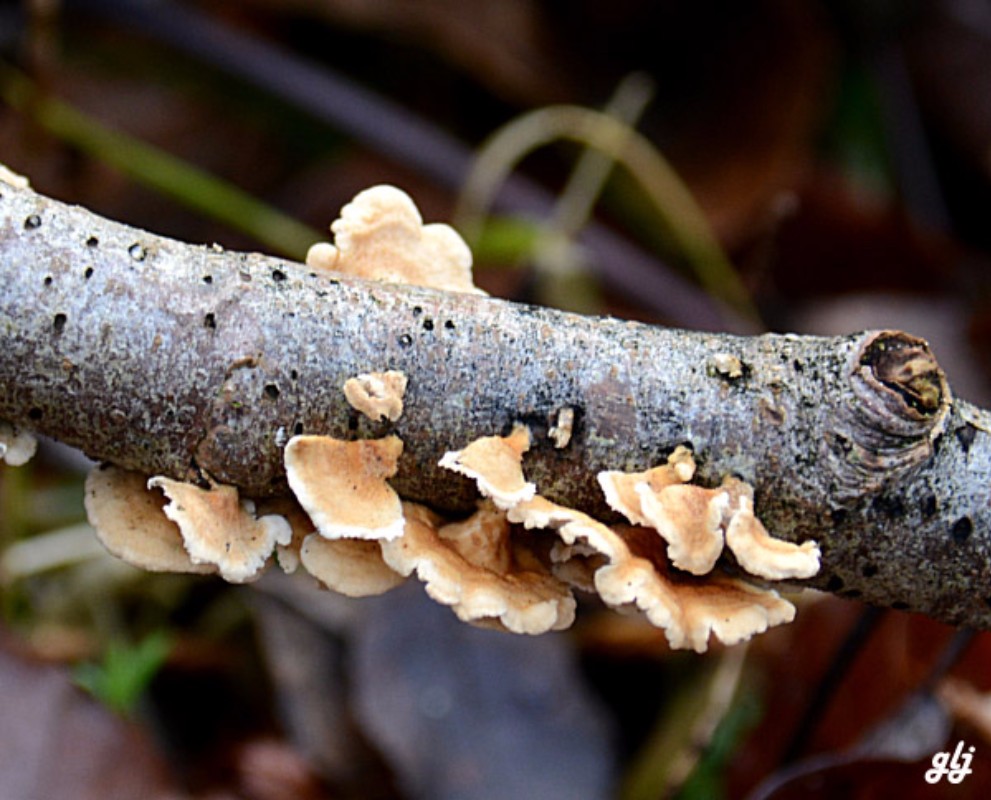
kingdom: Fungi
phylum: Basidiomycota
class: Agaricomycetes
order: Amylocorticiales
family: Amylocorticiaceae
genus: Plicaturopsis
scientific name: Plicaturopsis crispa
